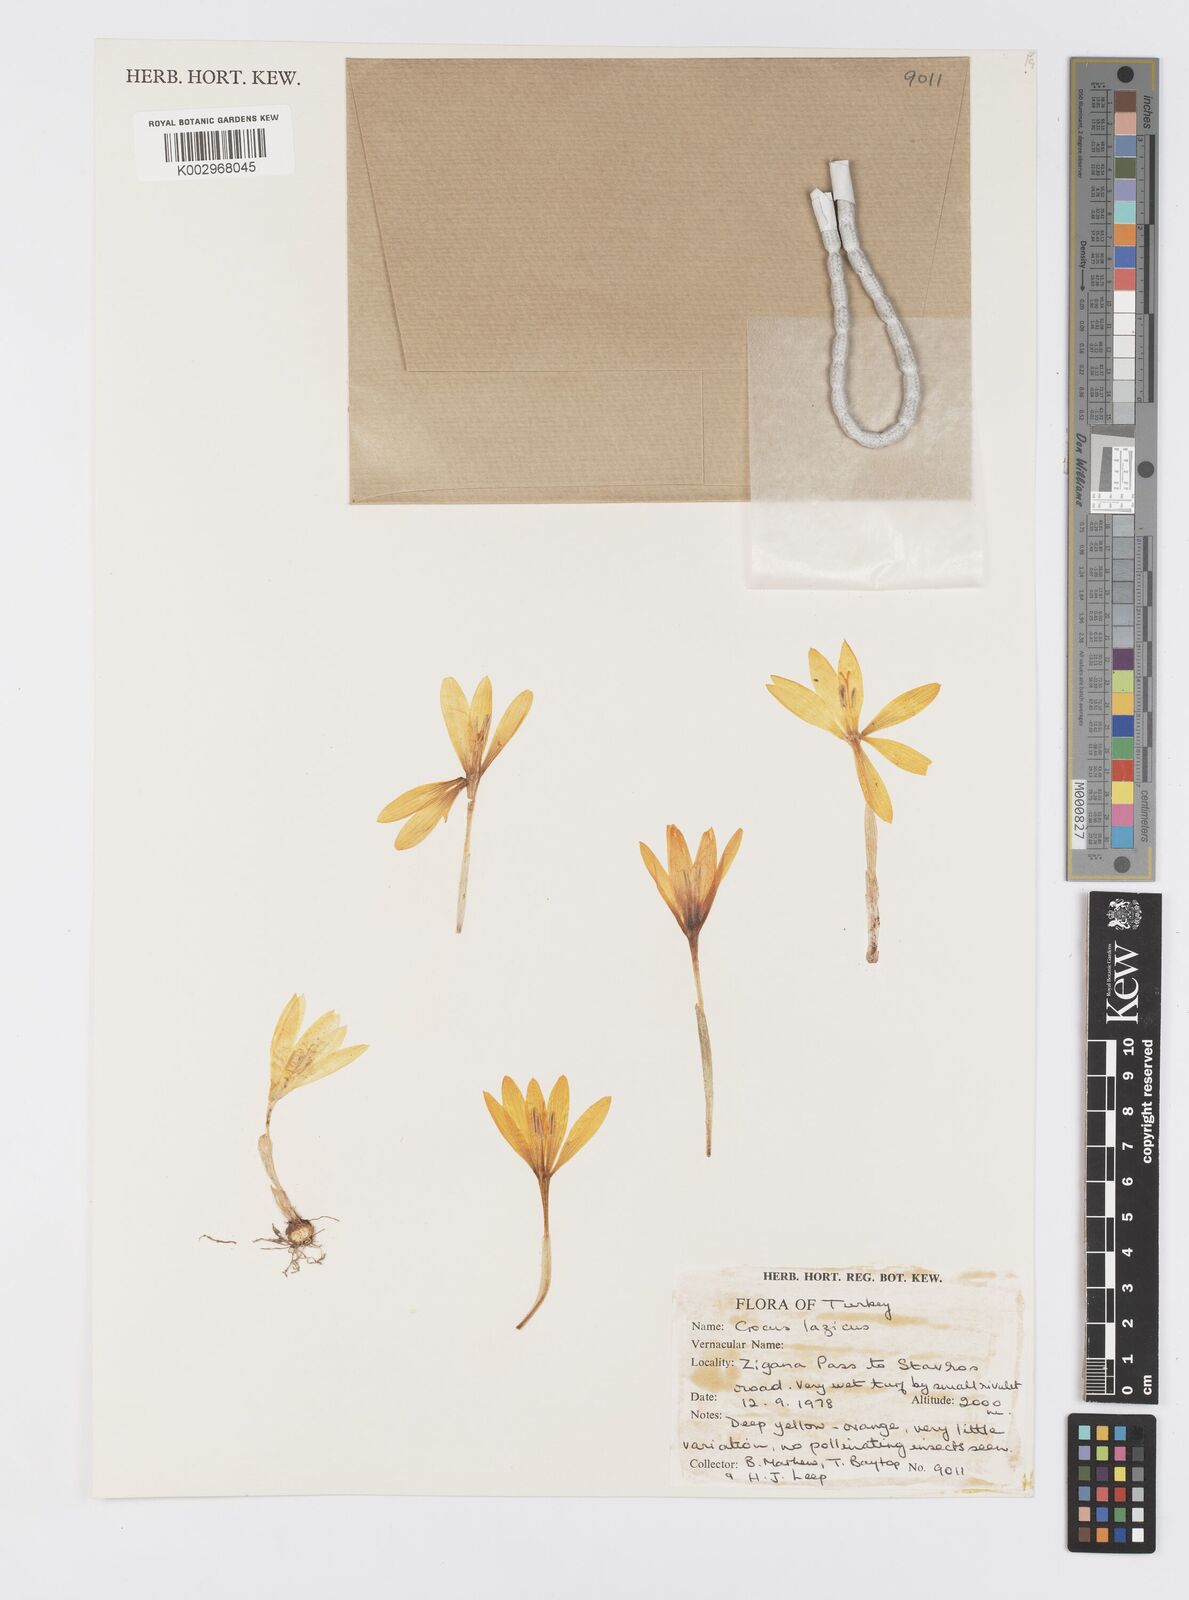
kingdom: Plantae
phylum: Tracheophyta
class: Liliopsida
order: Asparagales
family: Iridaceae
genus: Crocus
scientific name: Crocus lazicus
